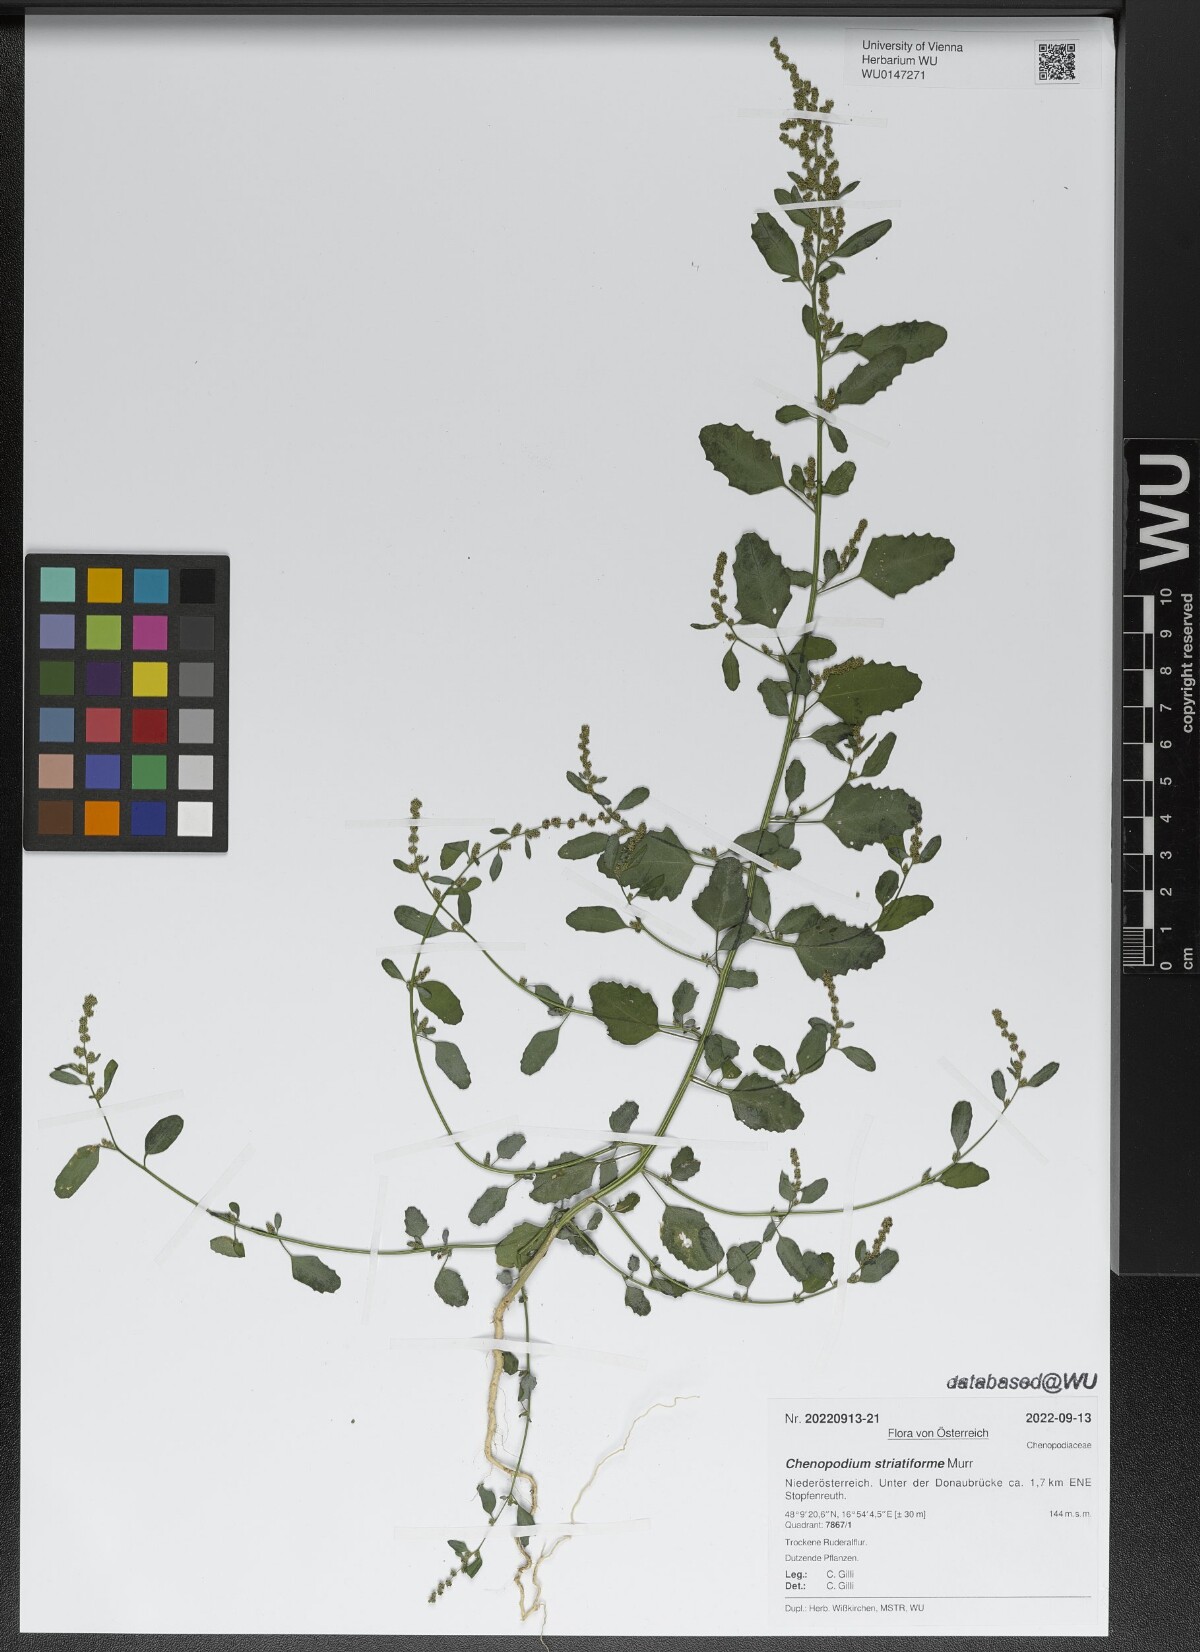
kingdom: Plantae
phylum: Tracheophyta
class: Magnoliopsida
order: Caryophyllales
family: Amaranthaceae
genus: Chenopodium
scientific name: Chenopodium album
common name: Fat-hen
